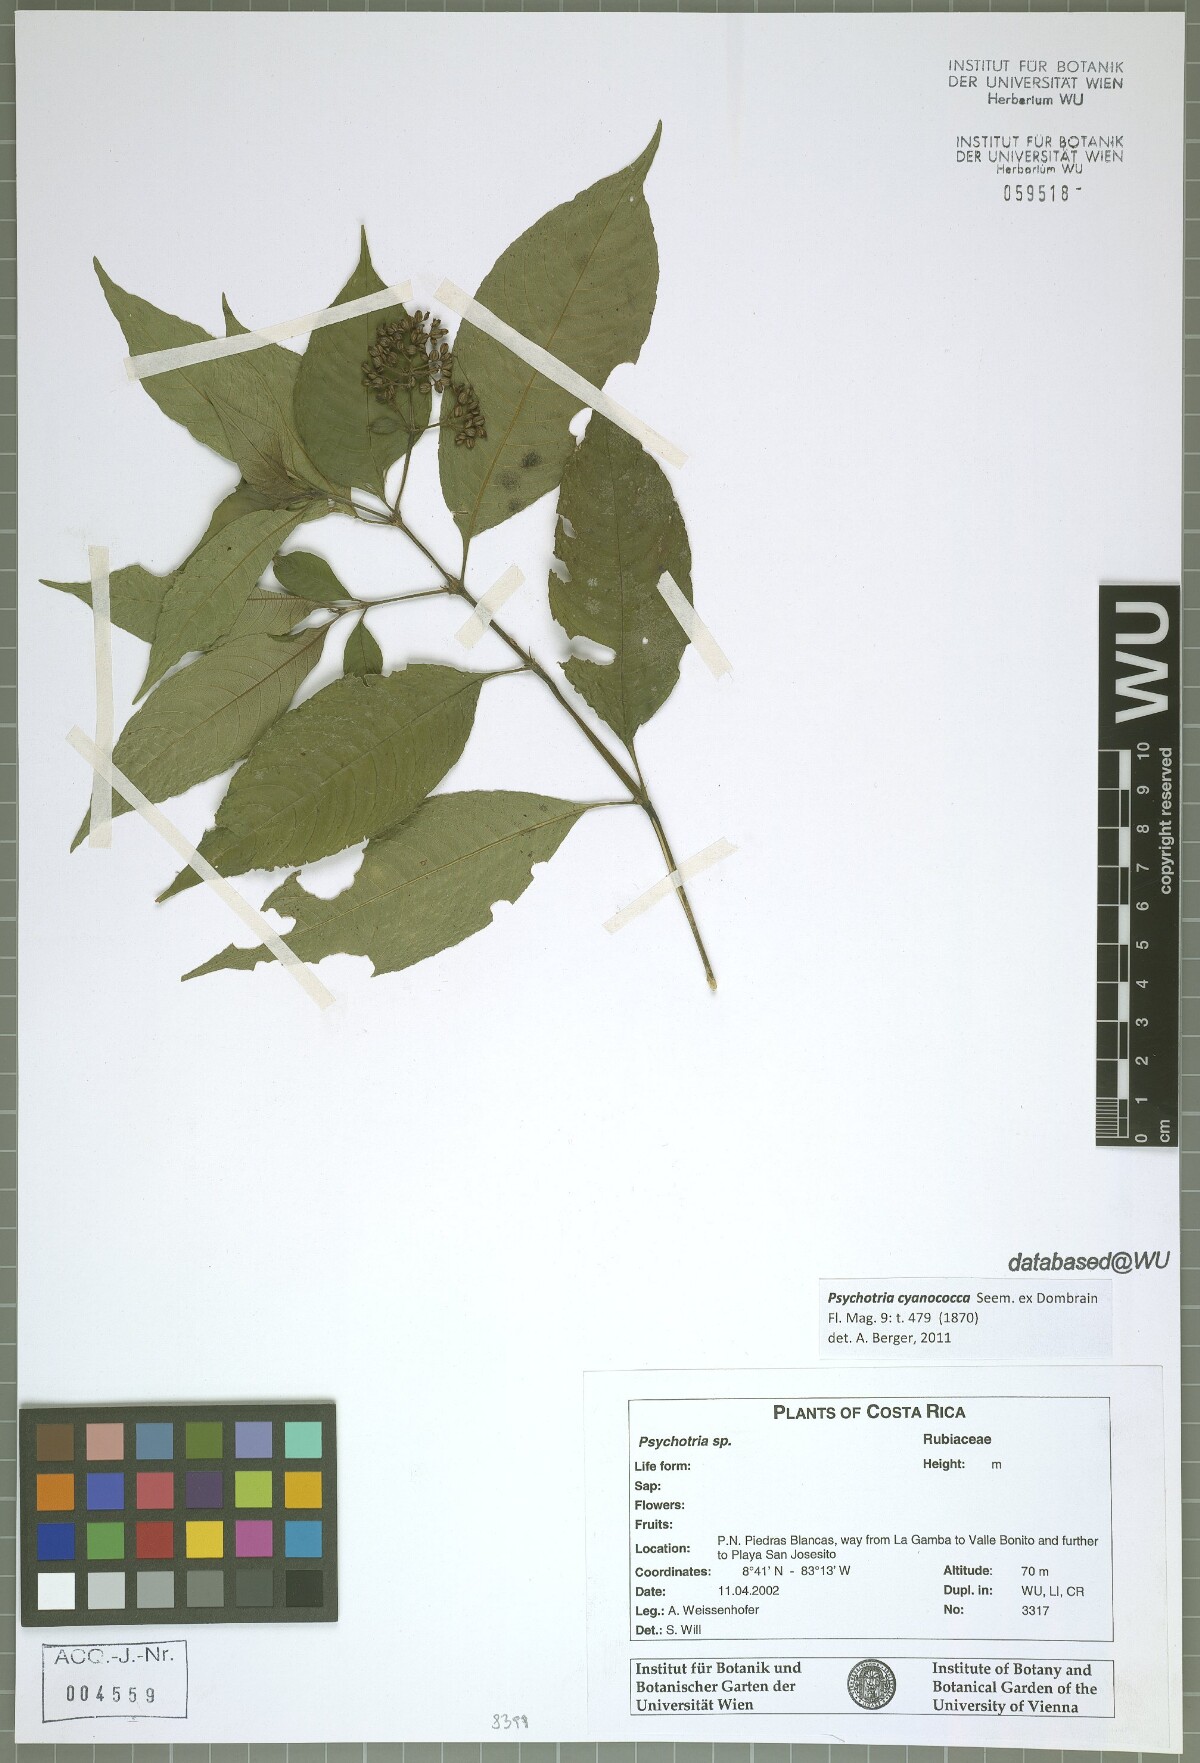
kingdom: Plantae
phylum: Tracheophyta
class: Magnoliopsida
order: Gentianales
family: Rubiaceae
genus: Palicourea
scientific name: Palicourea cyanococca
